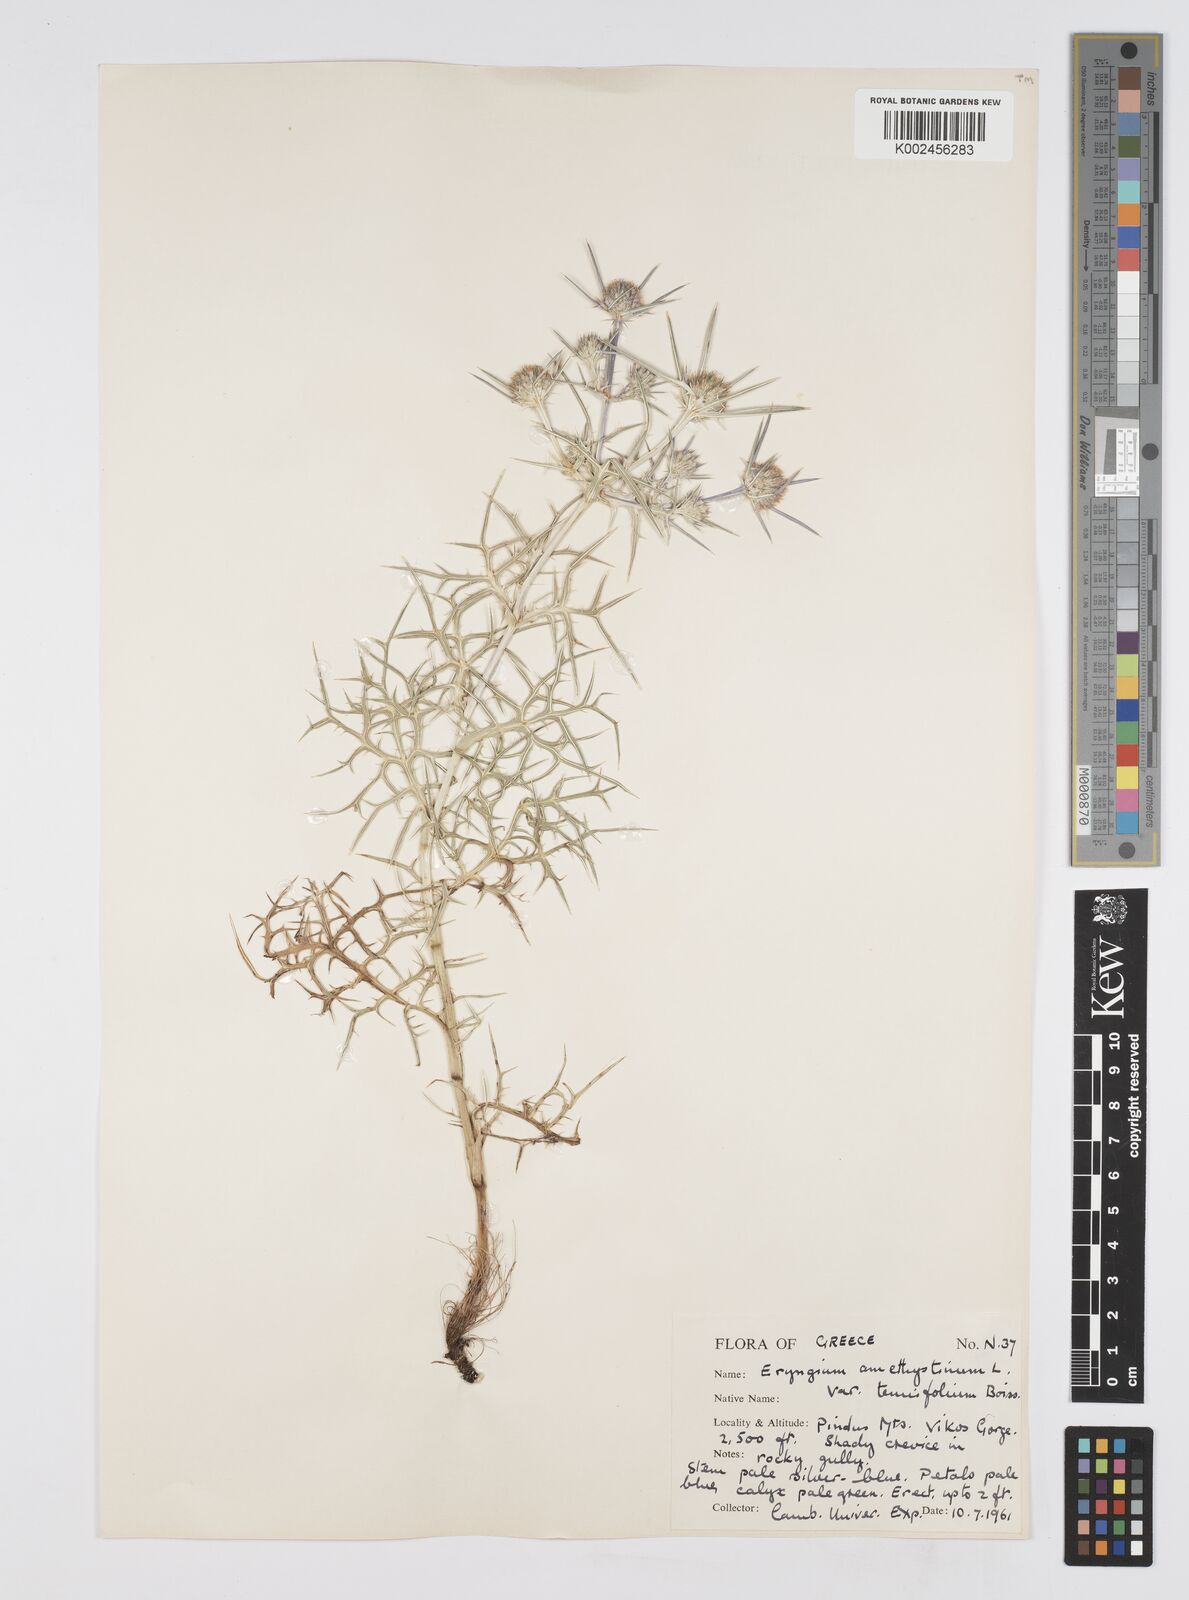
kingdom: Plantae
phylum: Tracheophyta
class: Magnoliopsida
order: Apiales
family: Apiaceae
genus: Eryngium
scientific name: Eryngium amethystinum
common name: Amethyst eryngo
